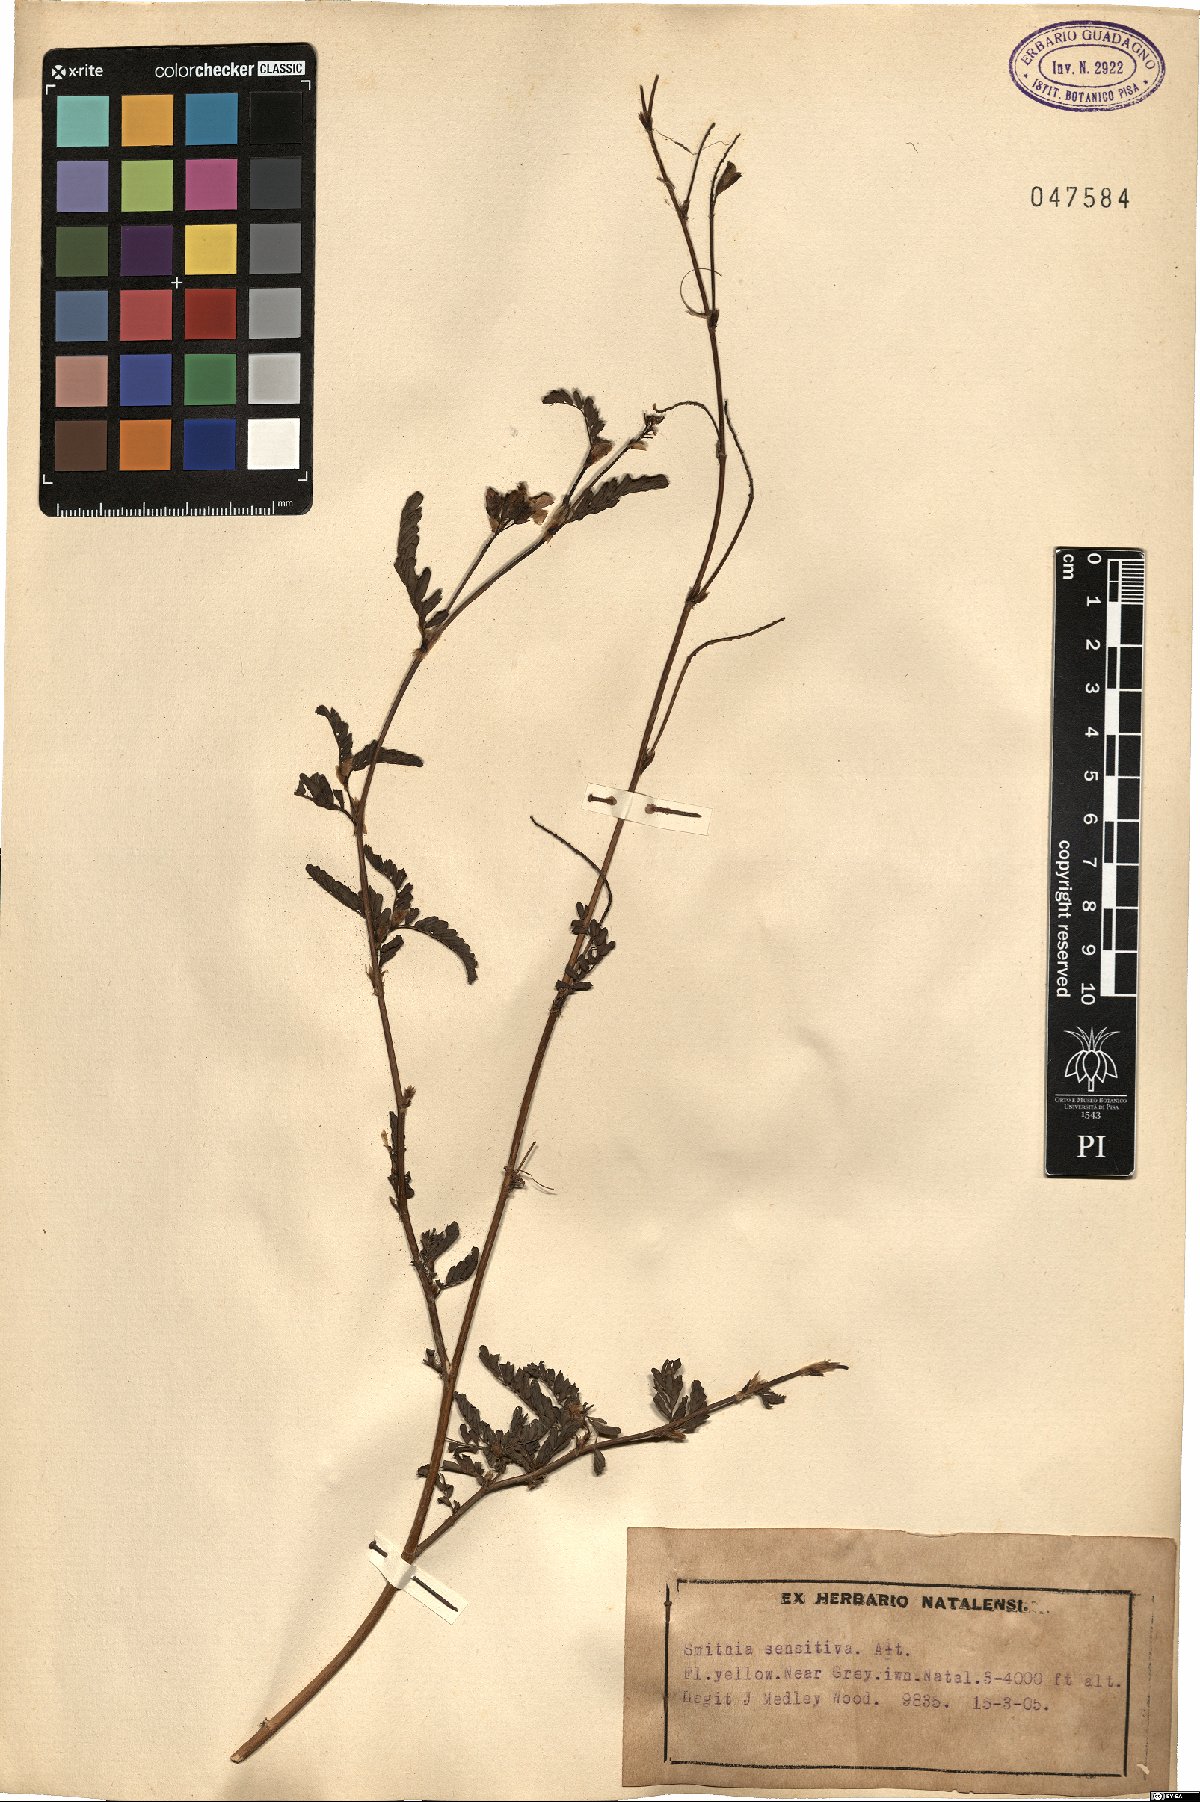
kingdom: Plantae
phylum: Tracheophyta
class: Magnoliopsida
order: Fabales
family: Fabaceae
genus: Smithia
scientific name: Smithia sensitiva
